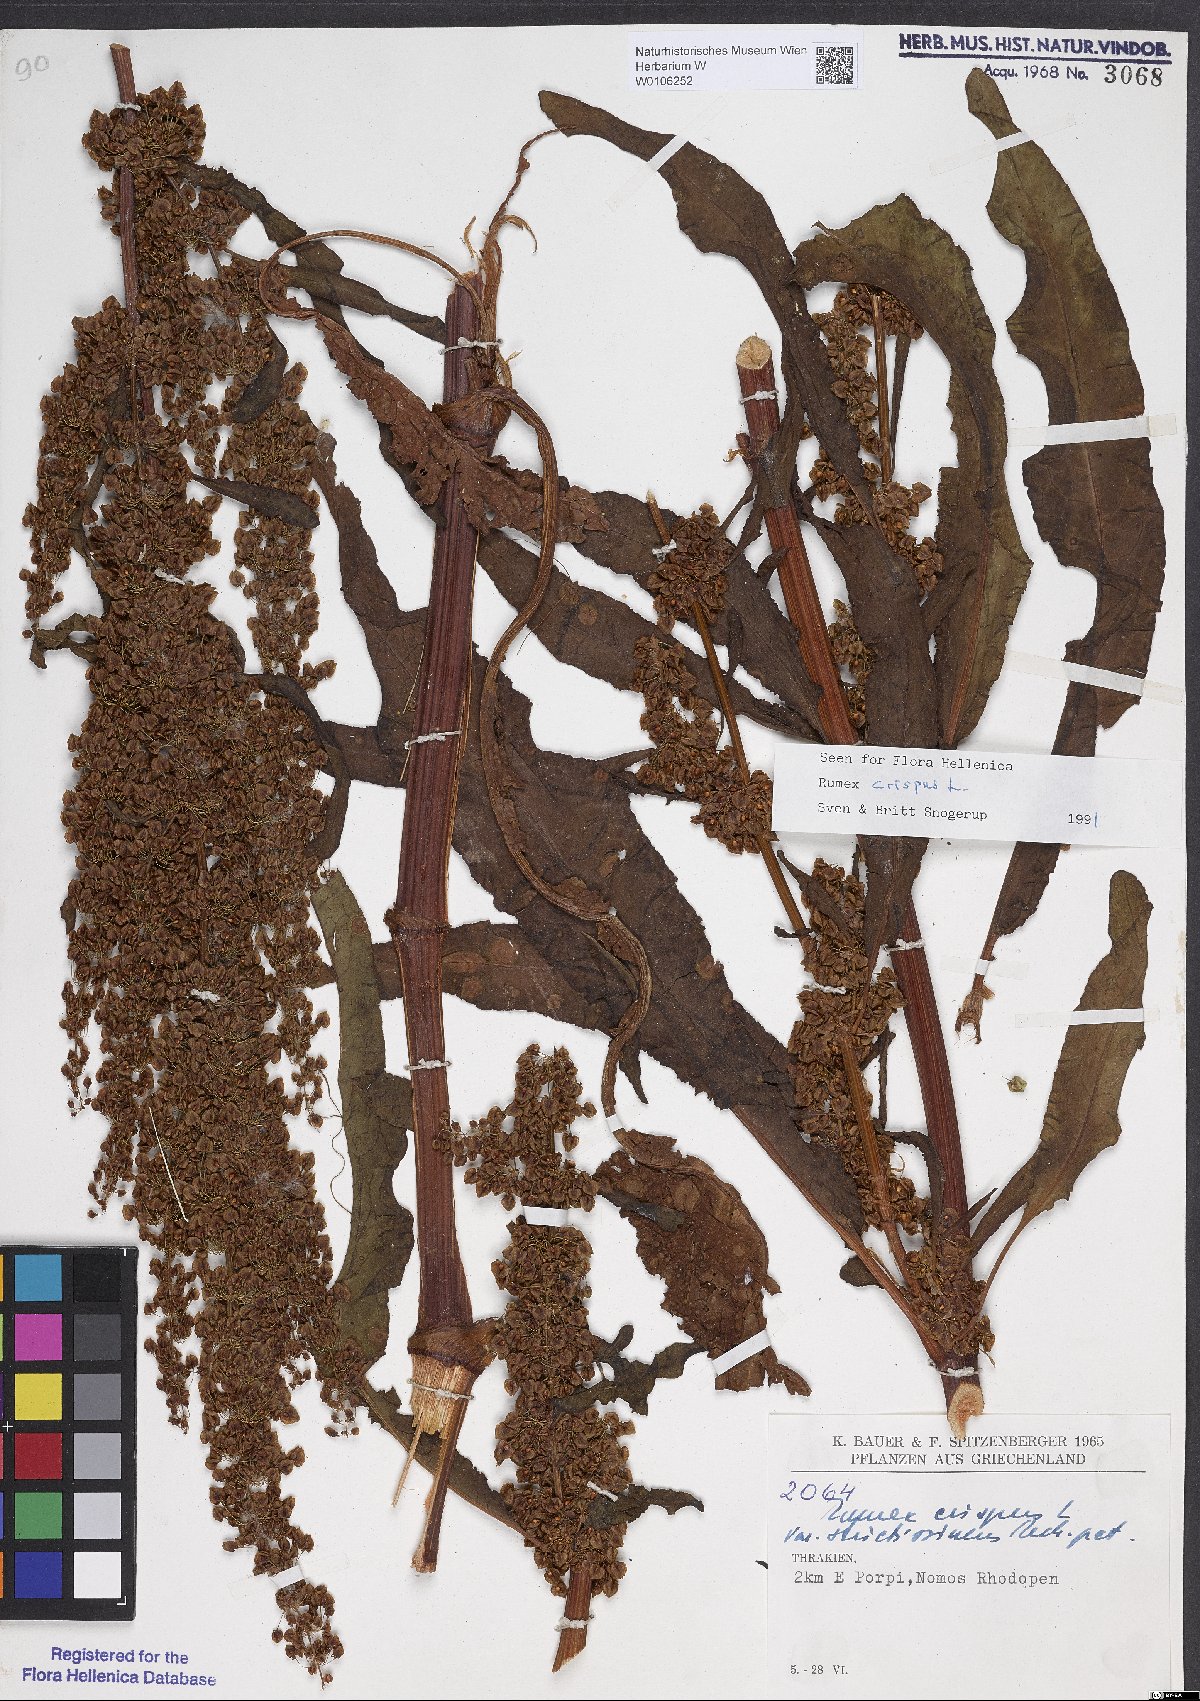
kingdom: Plantae
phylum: Tracheophyta
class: Magnoliopsida
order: Caryophyllales
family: Polygonaceae
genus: Rumex
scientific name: Rumex crispus
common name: Curled dock
